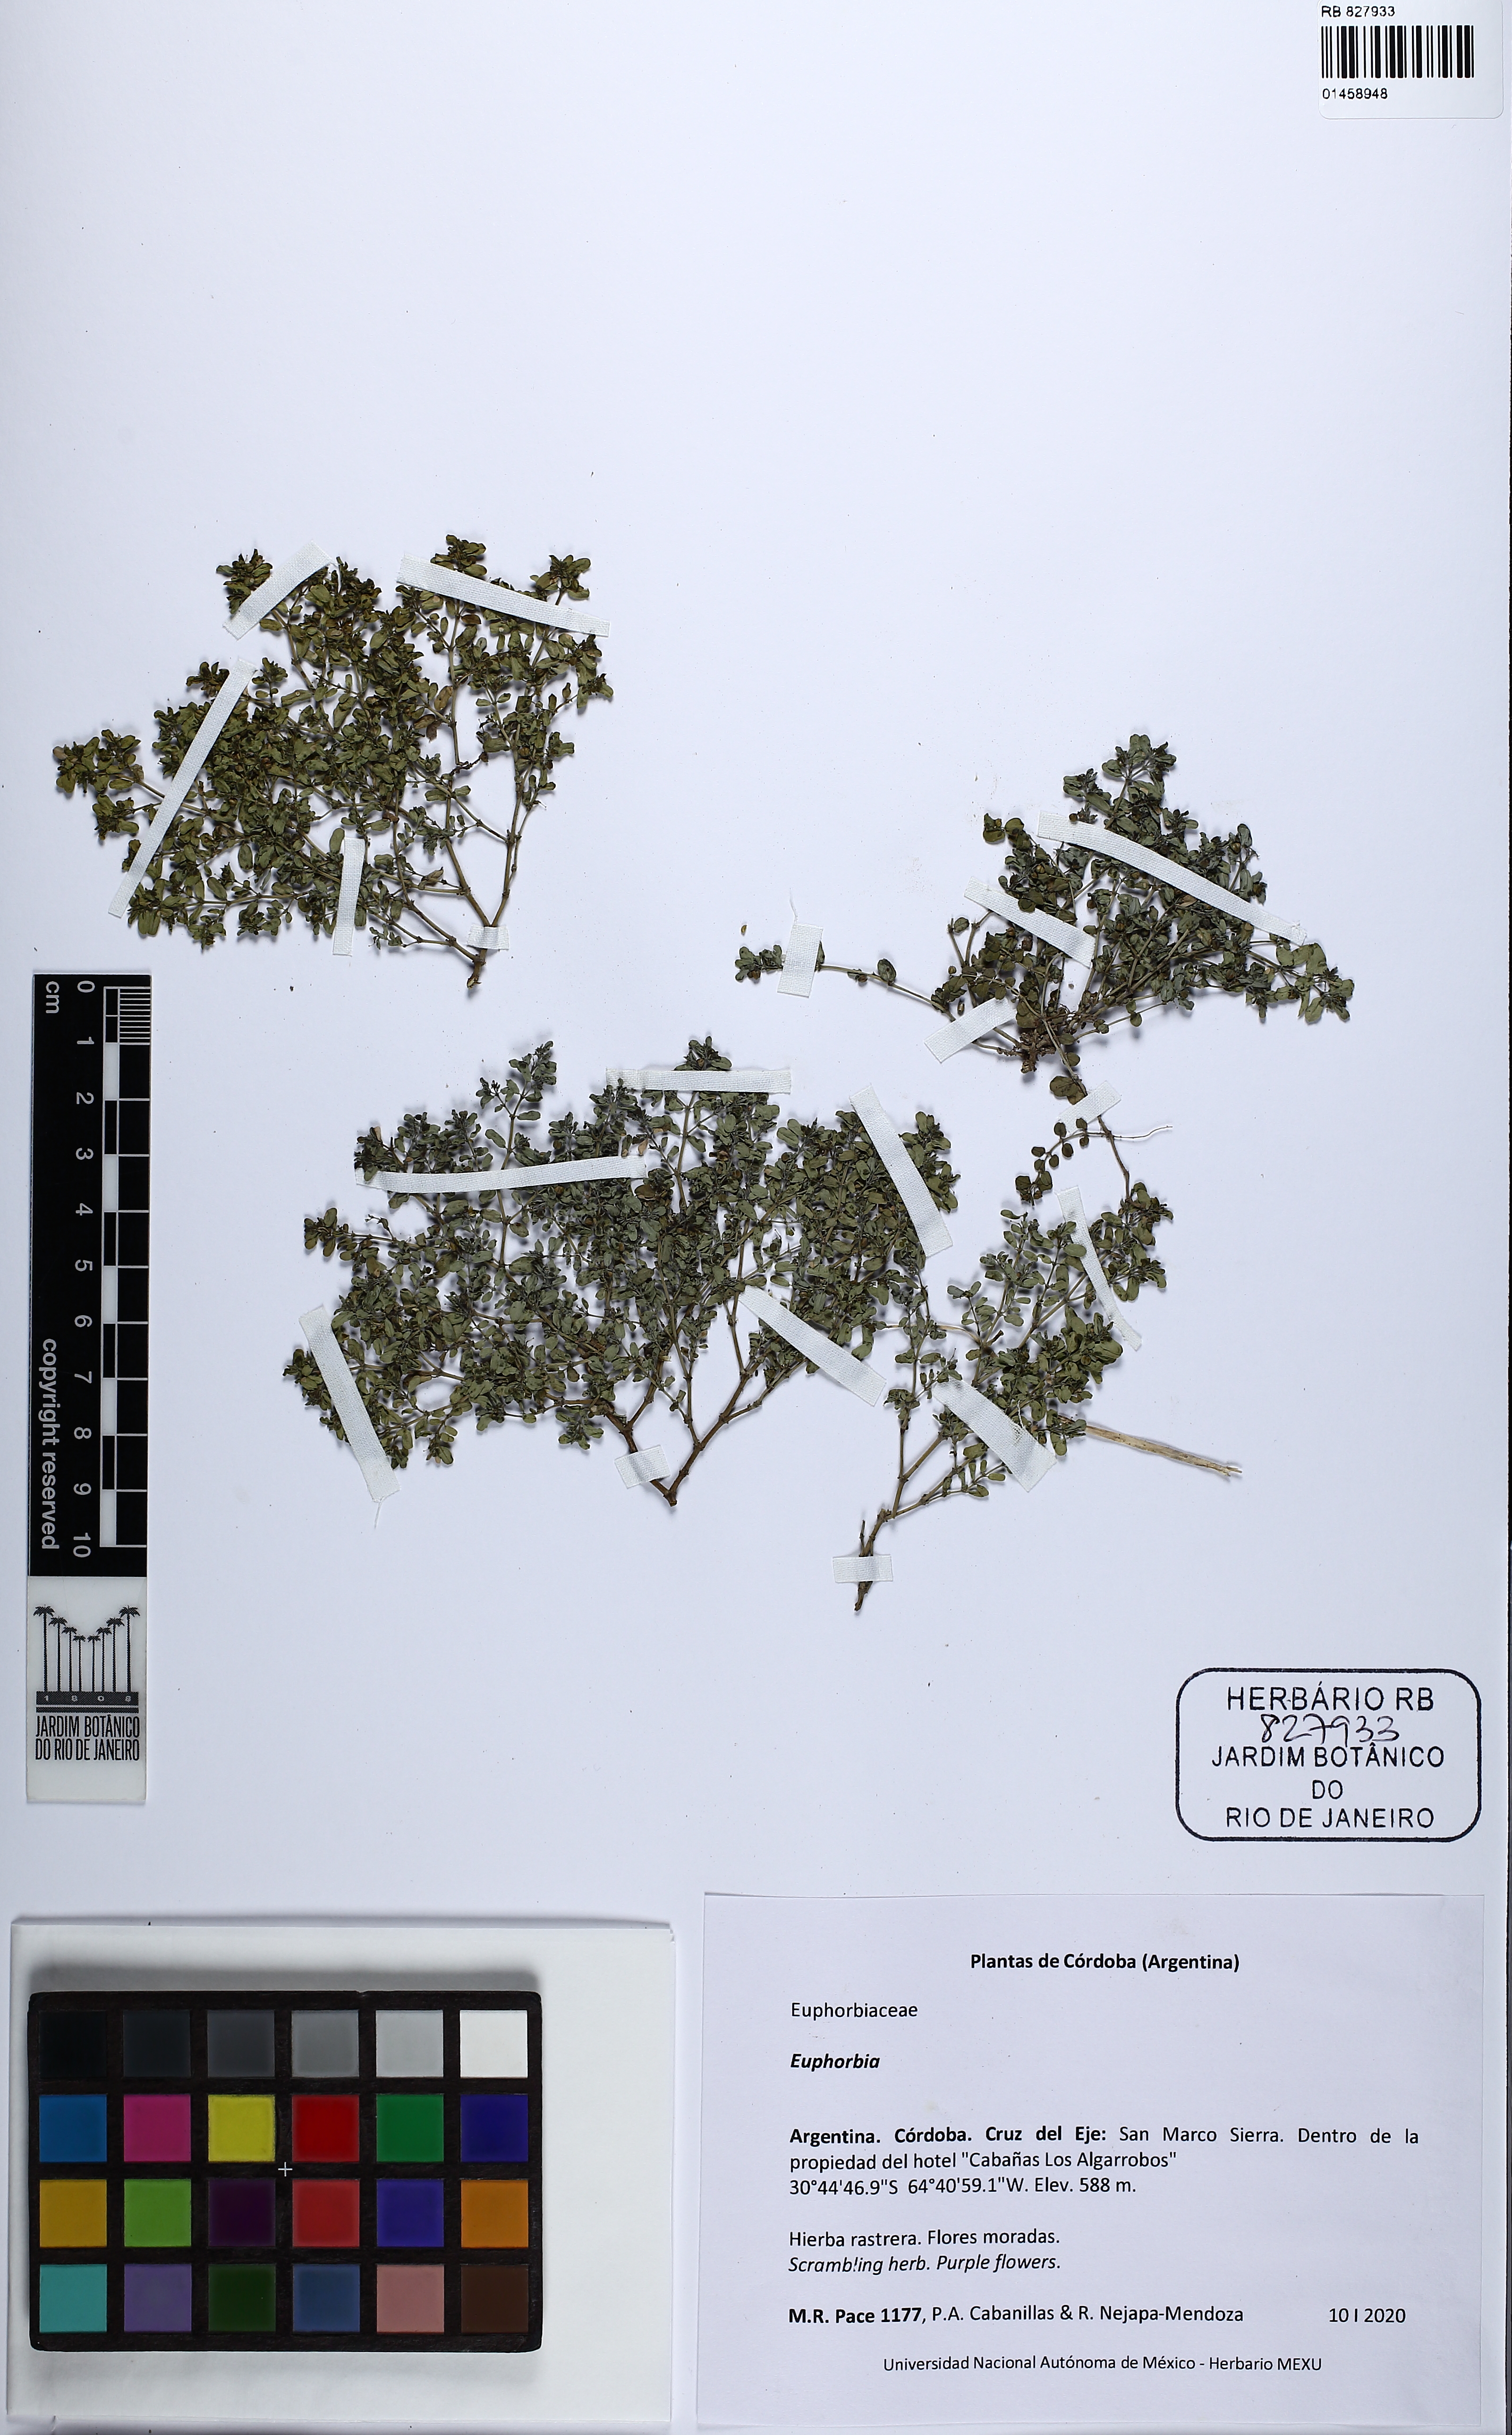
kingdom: Plantae
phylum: Tracheophyta
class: Magnoliopsida
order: Malpighiales
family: Euphorbiaceae
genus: Euphorbia
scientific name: Euphorbia
